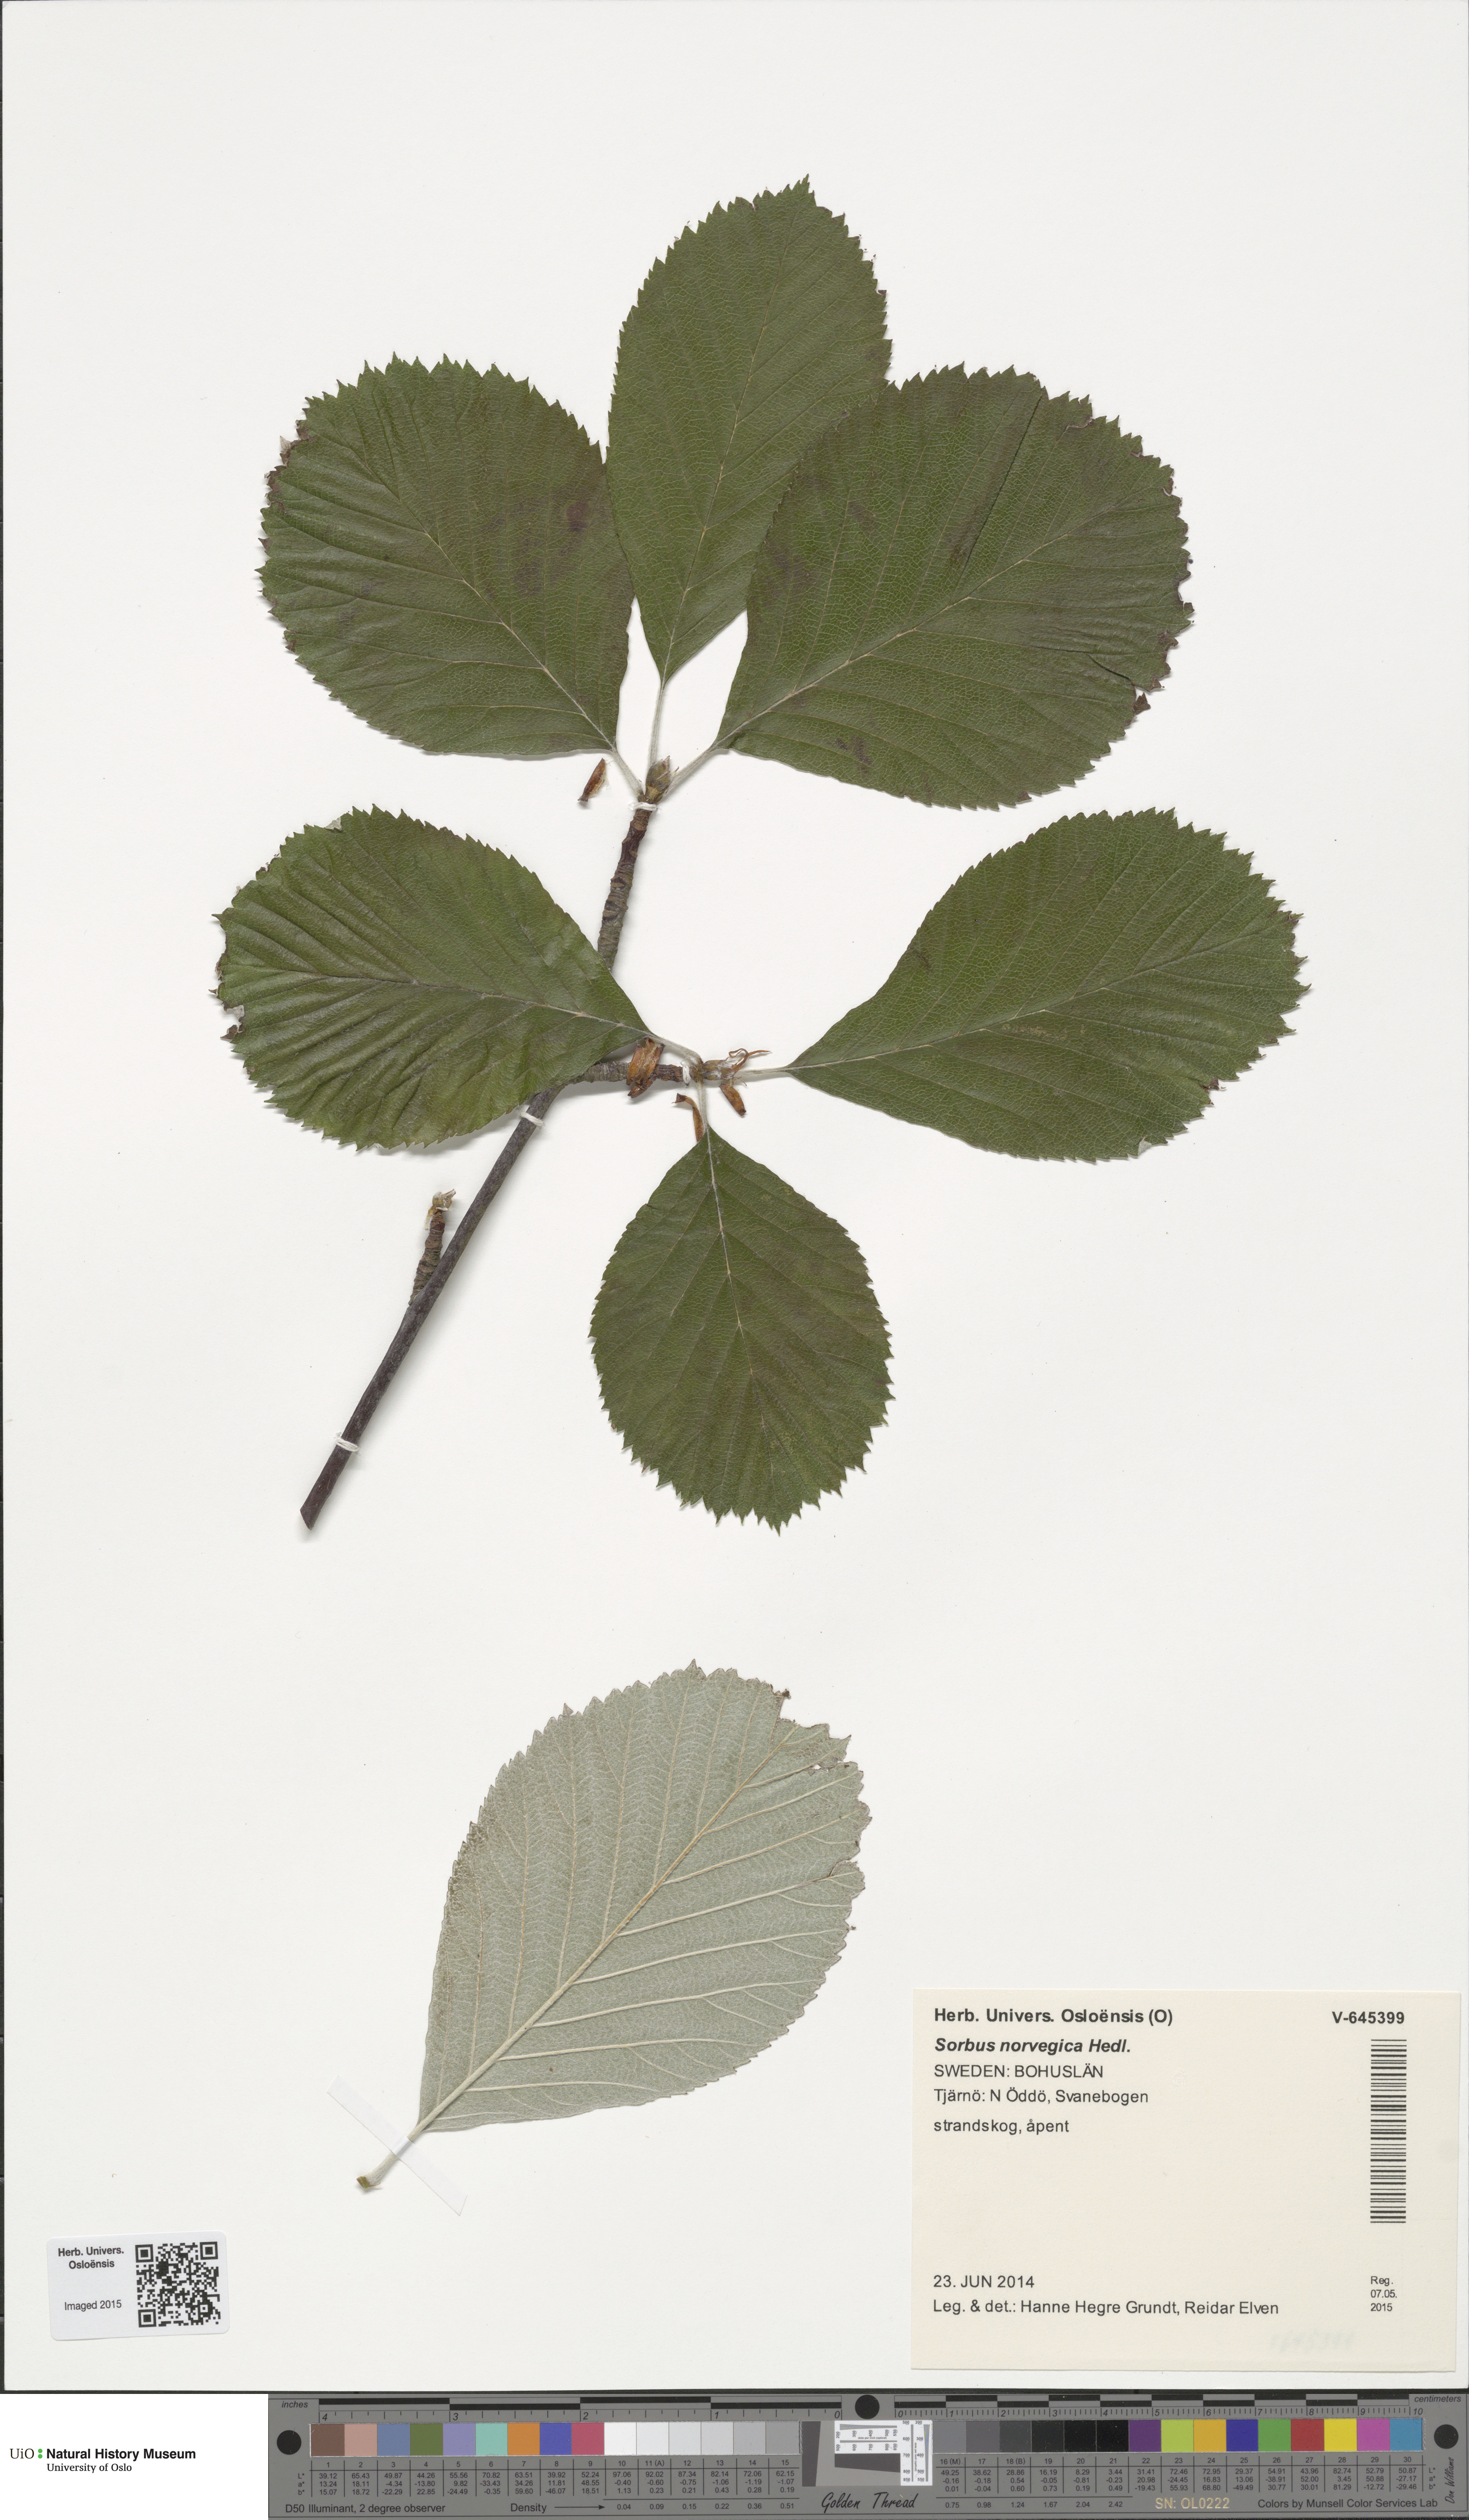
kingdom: Plantae
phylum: Tracheophyta
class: Magnoliopsida
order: Rosales
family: Rosaceae
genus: Aria
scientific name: Aria obtusifolia
